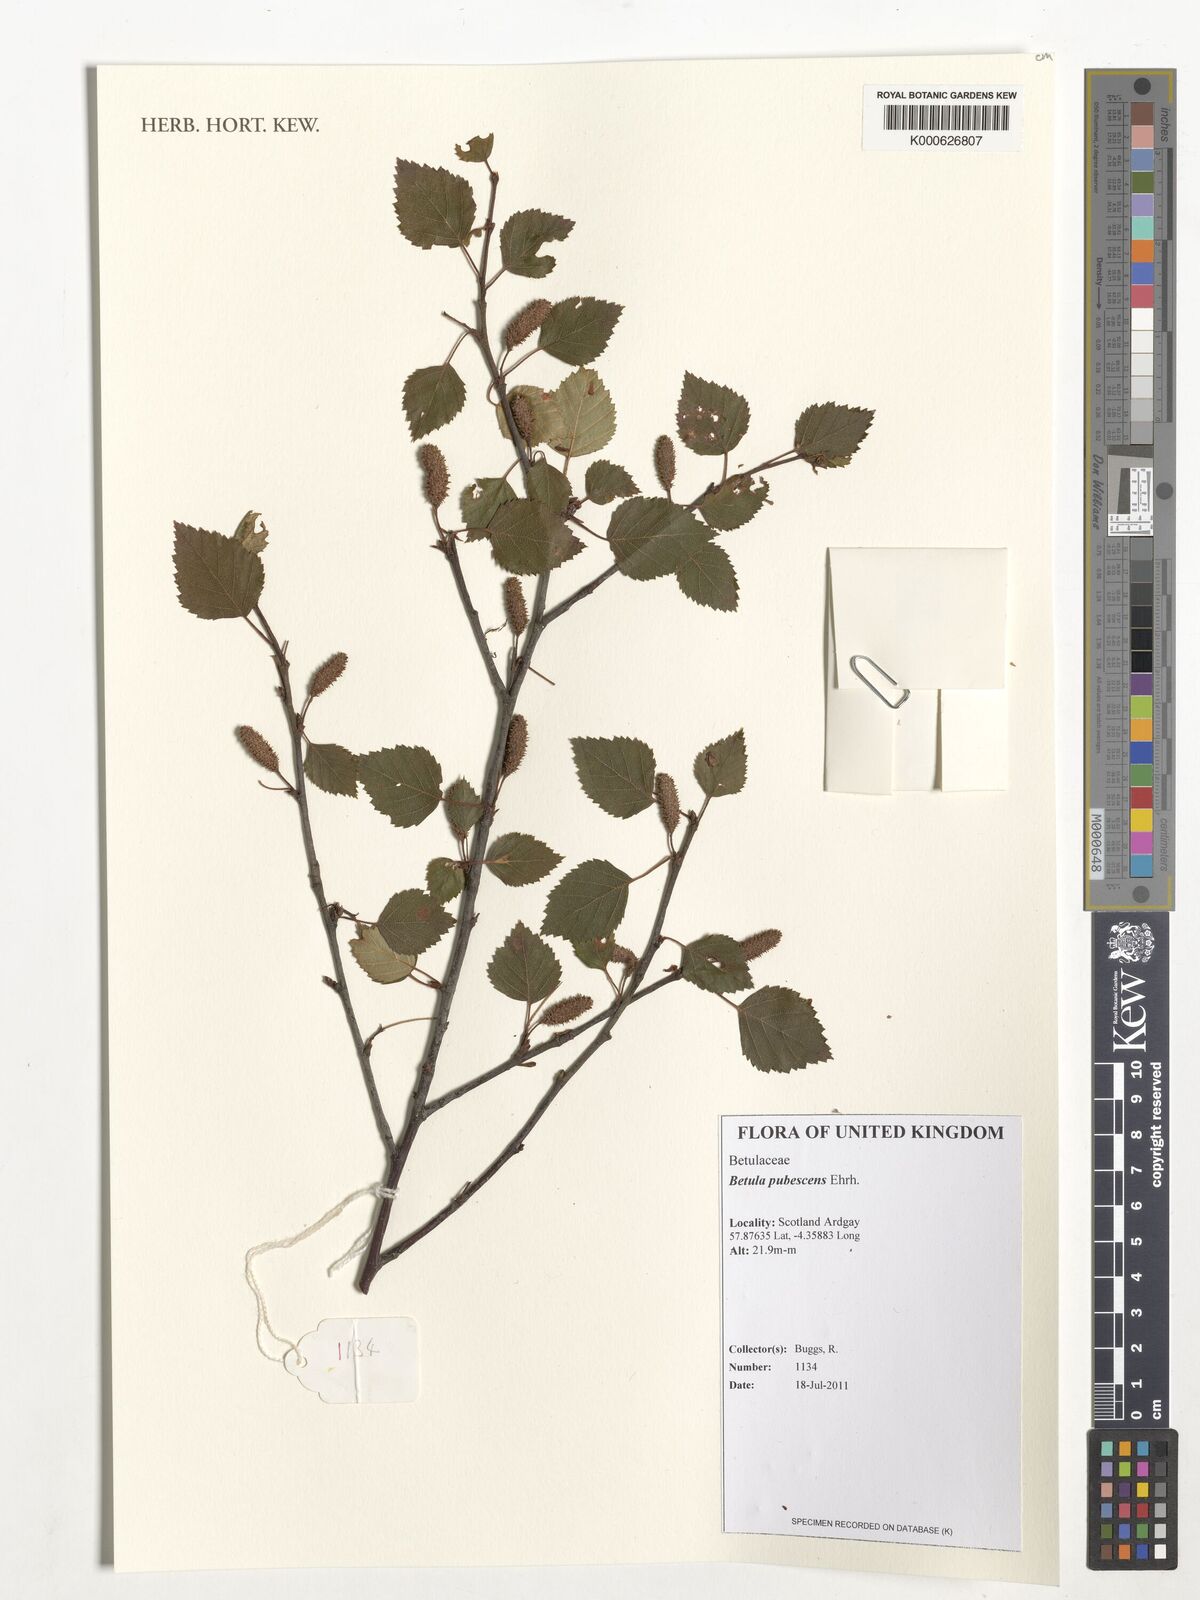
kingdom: Plantae
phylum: Tracheophyta
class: Magnoliopsida
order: Fagales
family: Betulaceae
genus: Betula
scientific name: Betula pubescens
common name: Downy birch
